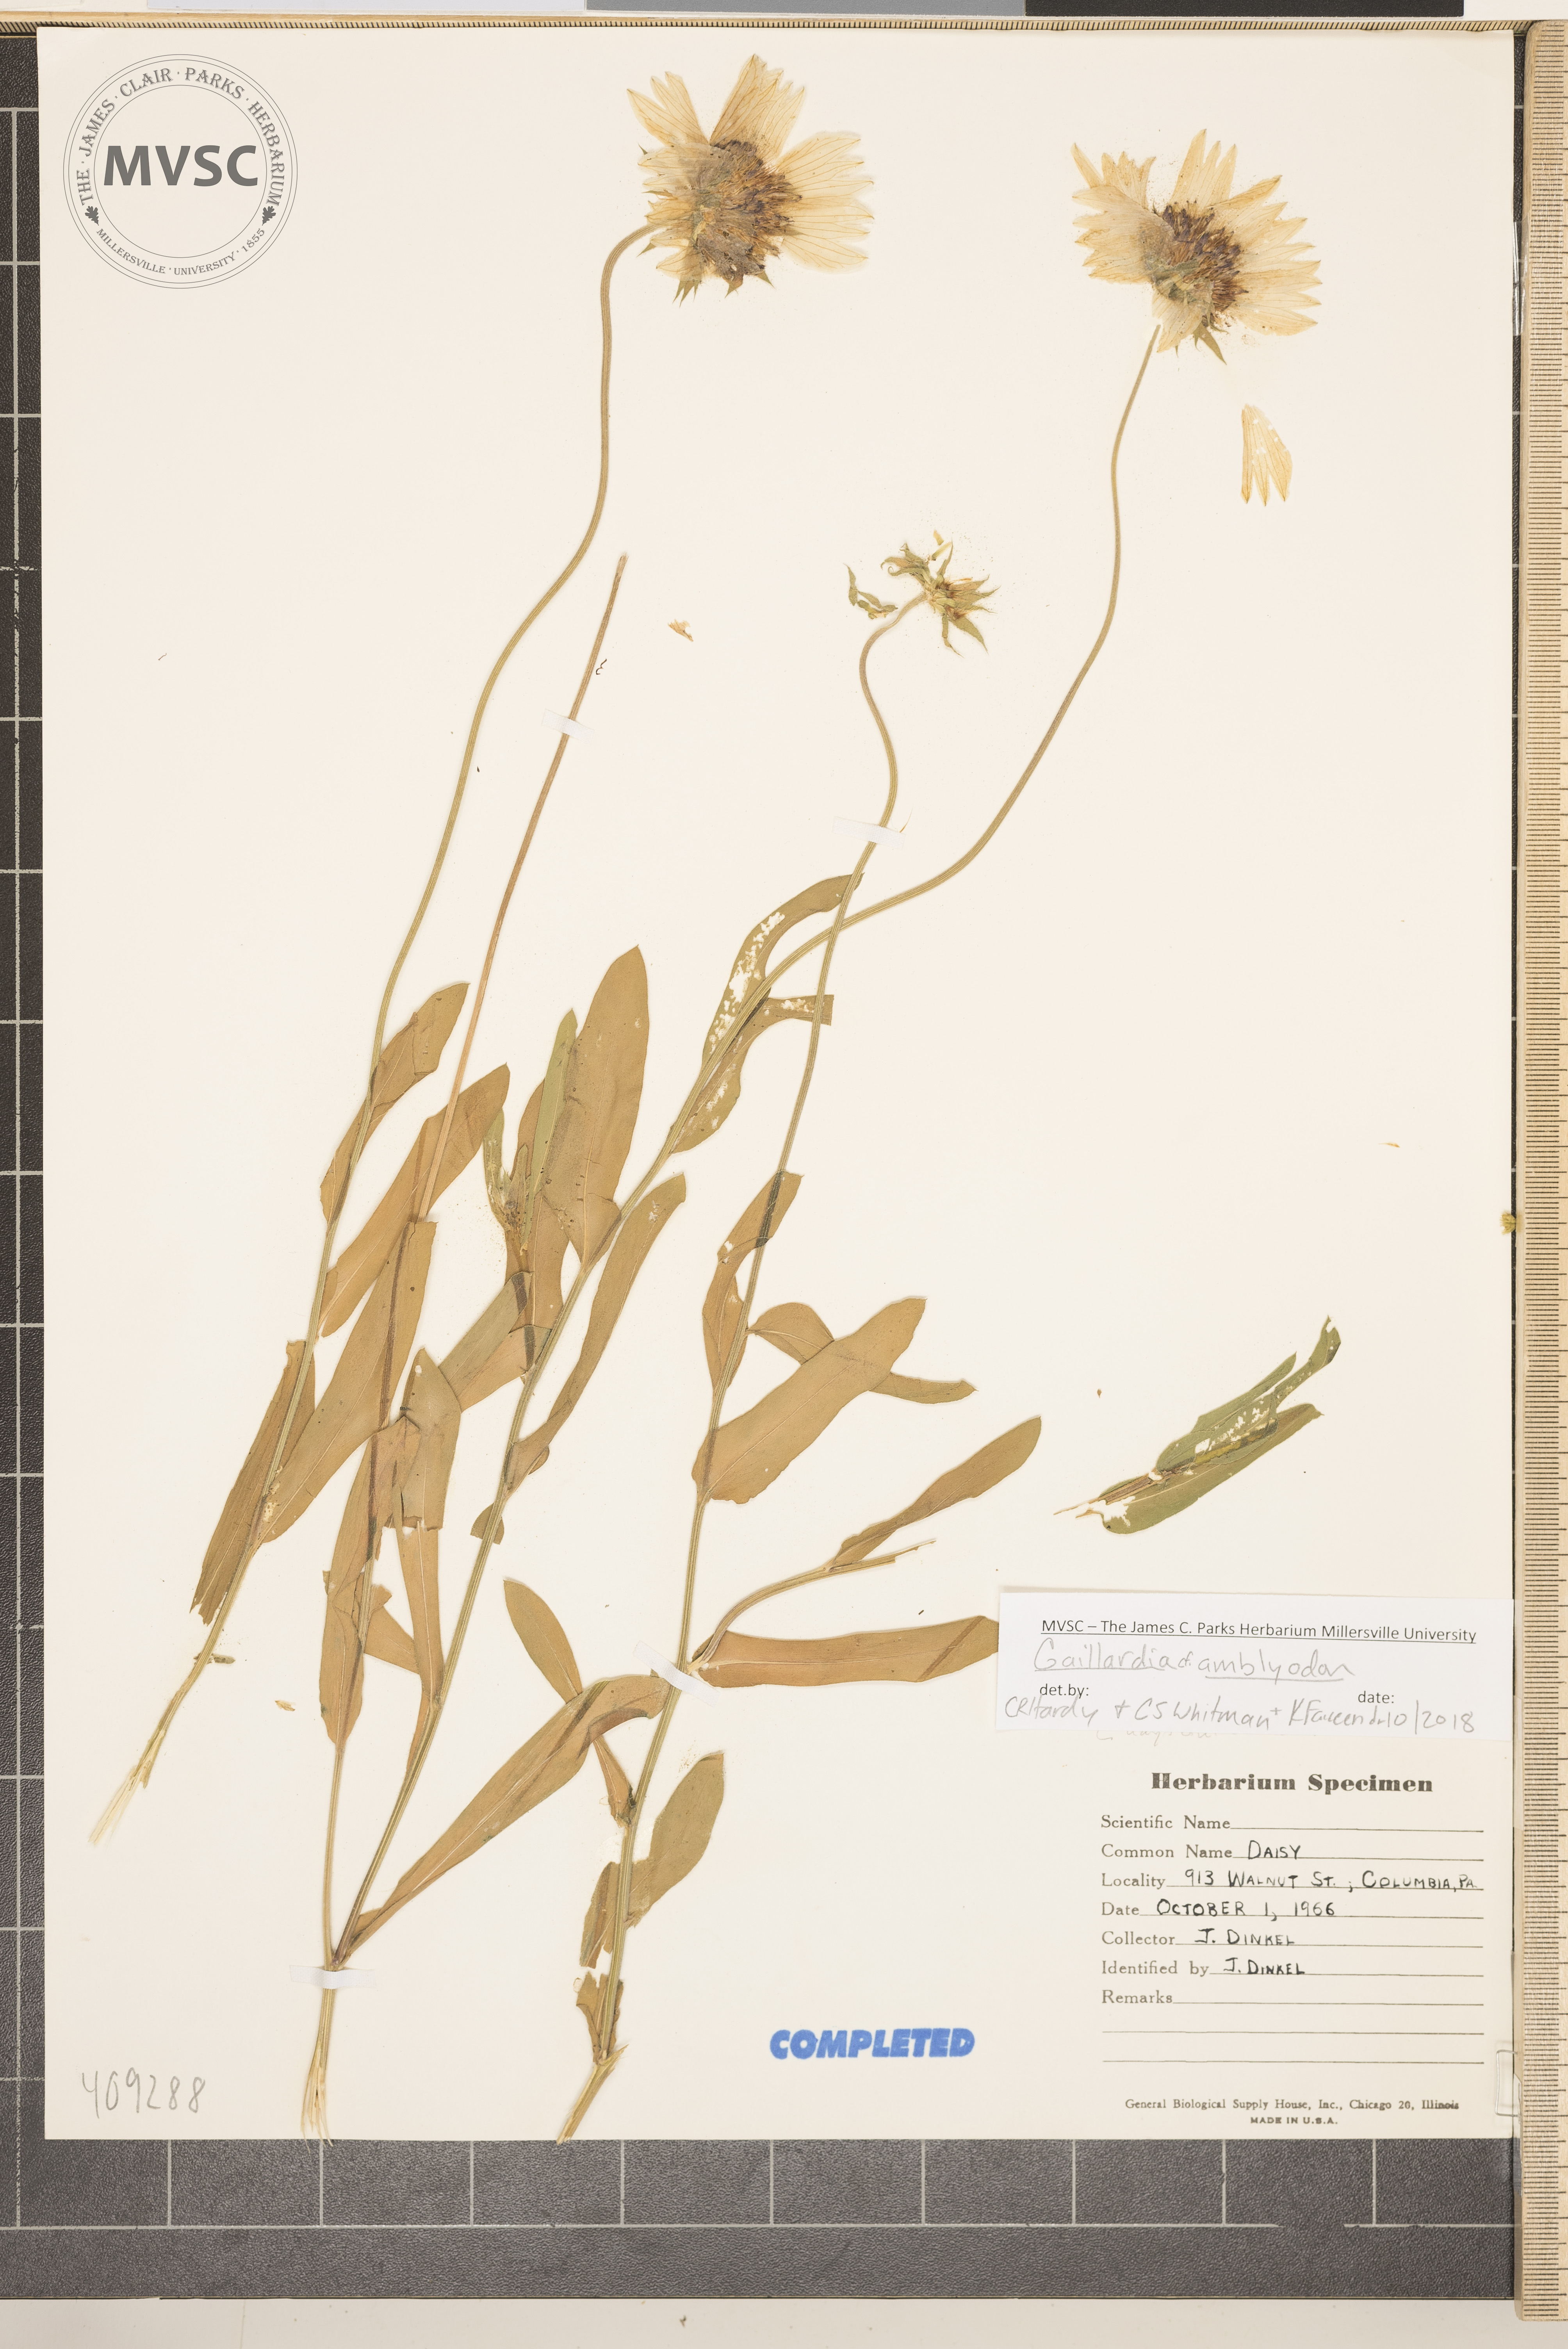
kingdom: Plantae
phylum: Tracheophyta
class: Magnoliopsida
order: Asterales
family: Asteraceae
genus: Gaillardia
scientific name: Gaillardia amblyodon
